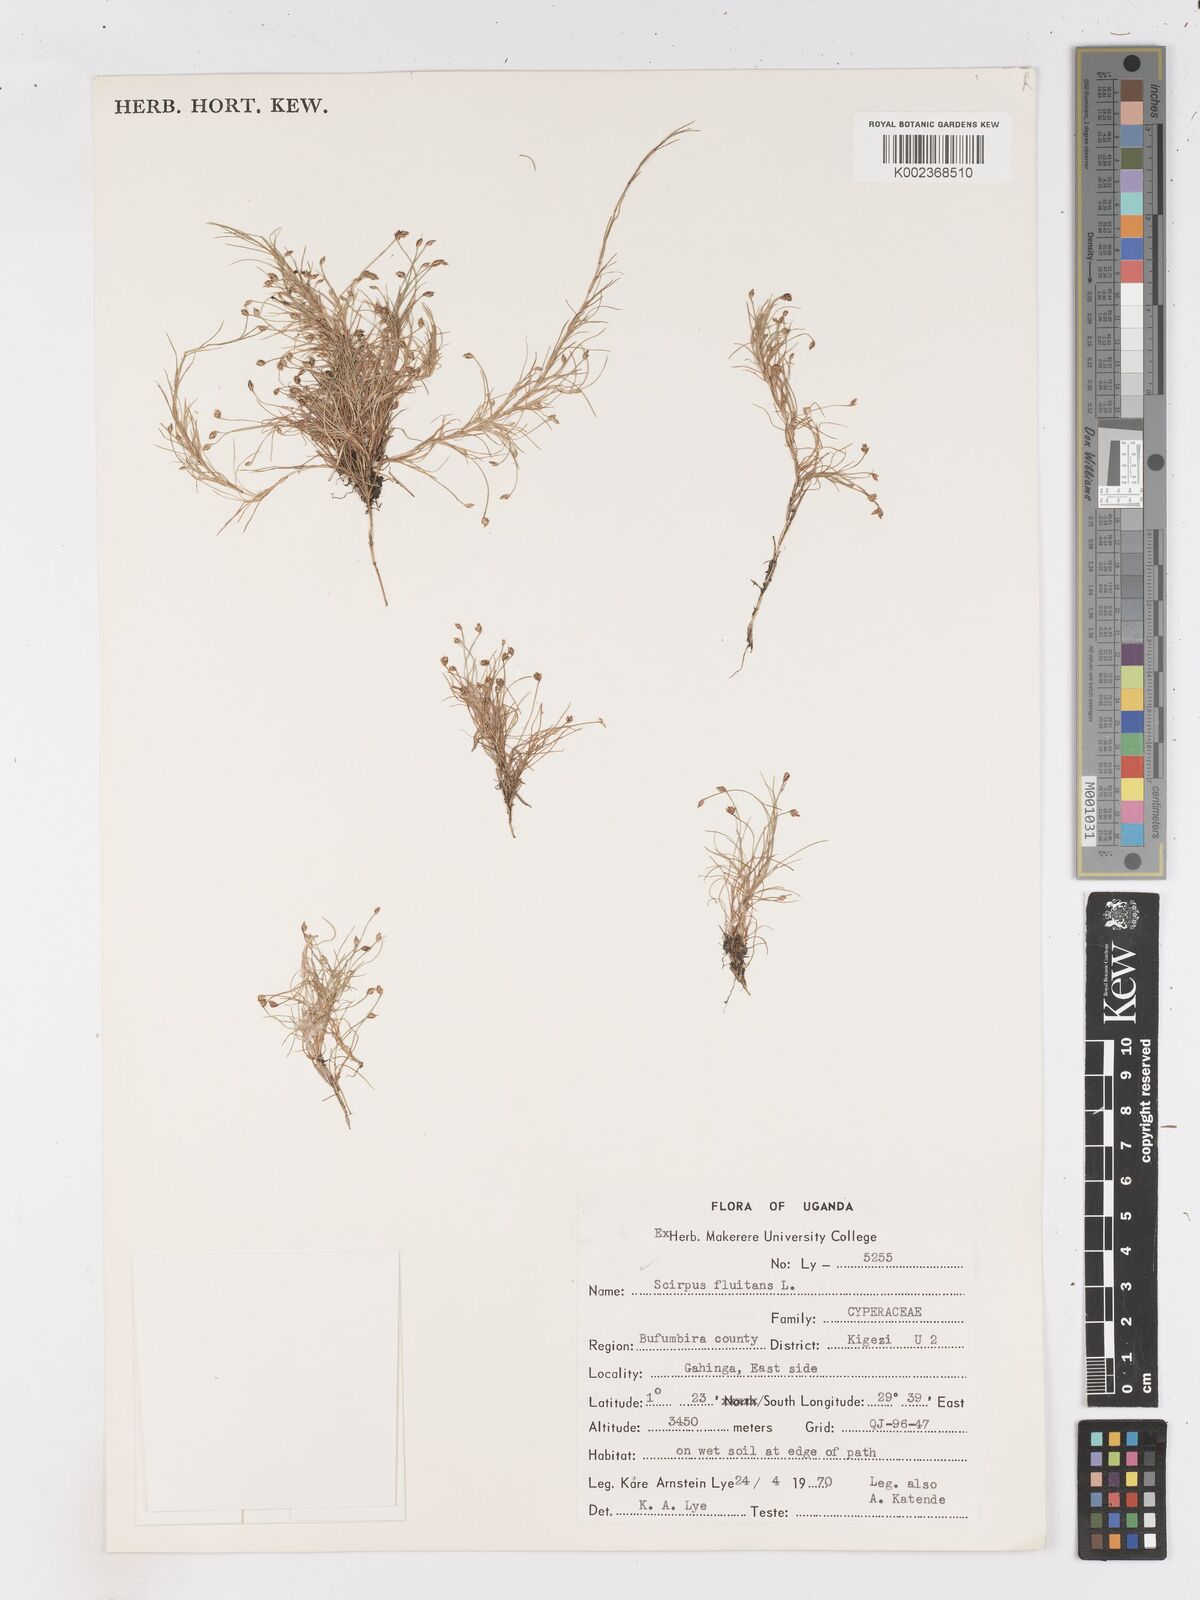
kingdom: Plantae
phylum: Tracheophyta
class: Liliopsida
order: Poales
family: Cyperaceae
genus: Isolepis
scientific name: Isolepis fluitans
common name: Floating club-rush
